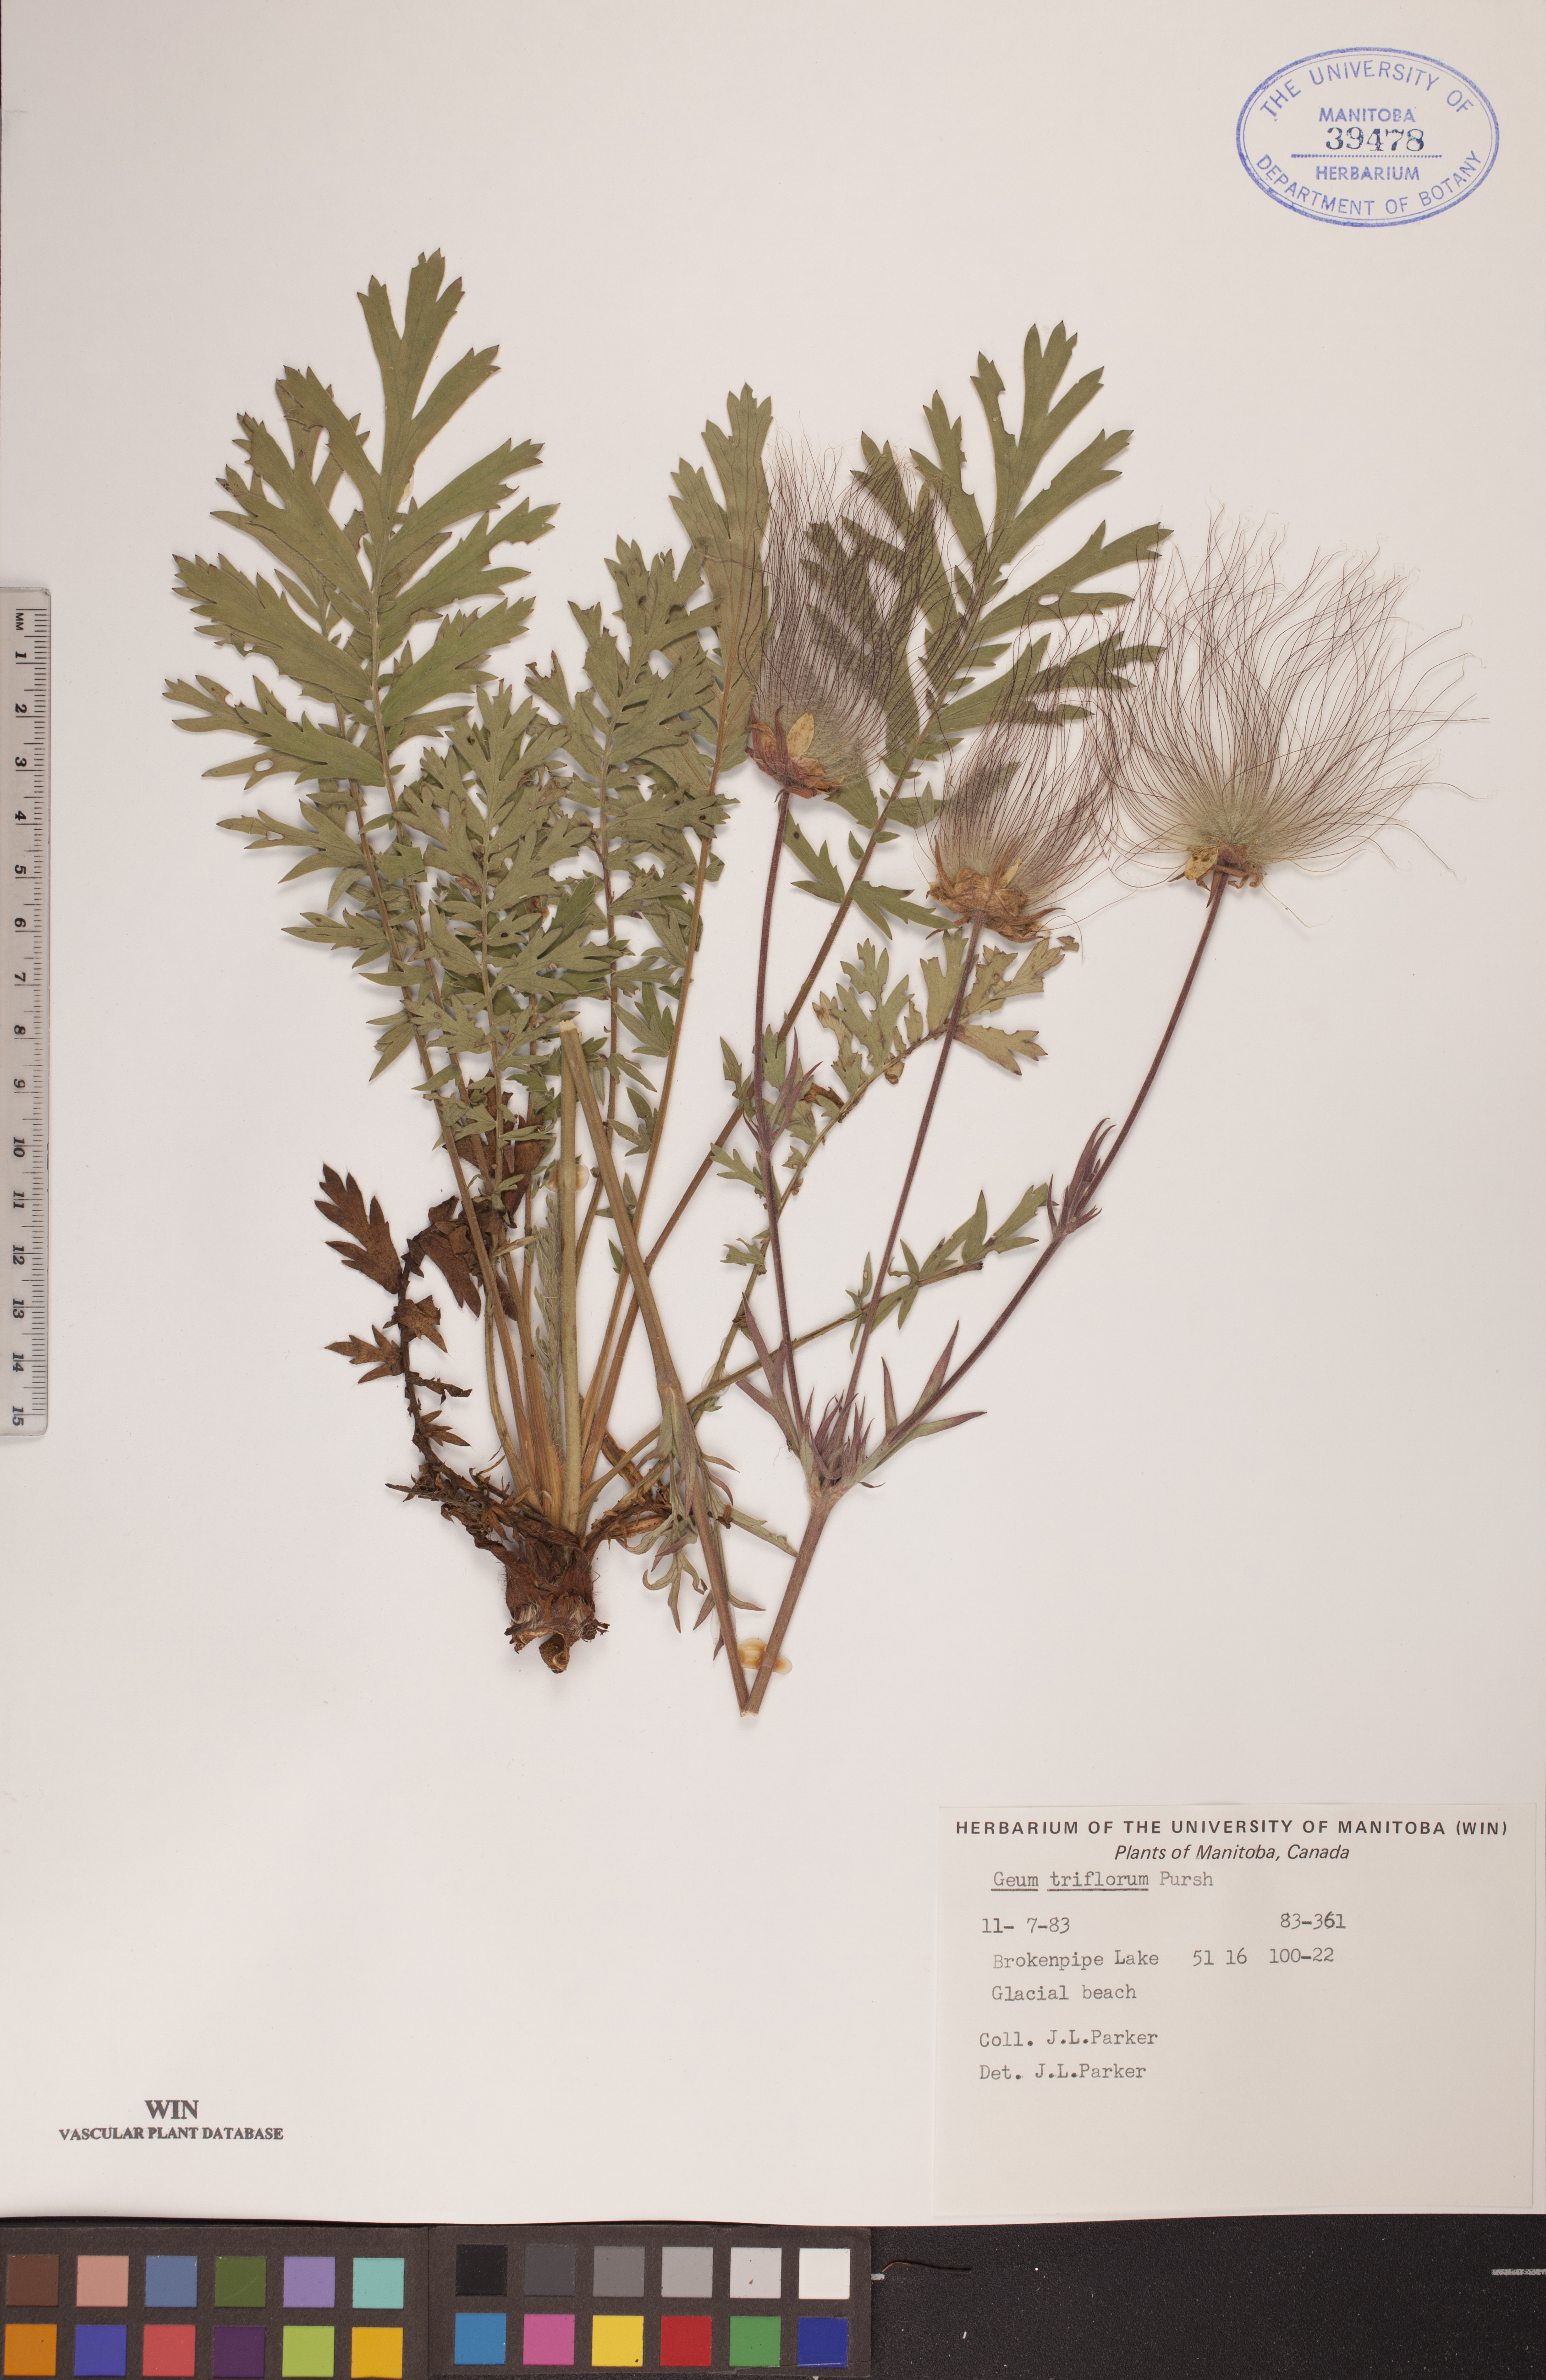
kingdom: Plantae
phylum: Tracheophyta
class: Magnoliopsida
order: Rosales
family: Rosaceae
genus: Geum
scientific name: Geum triflorum
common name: Old man's whiskers
